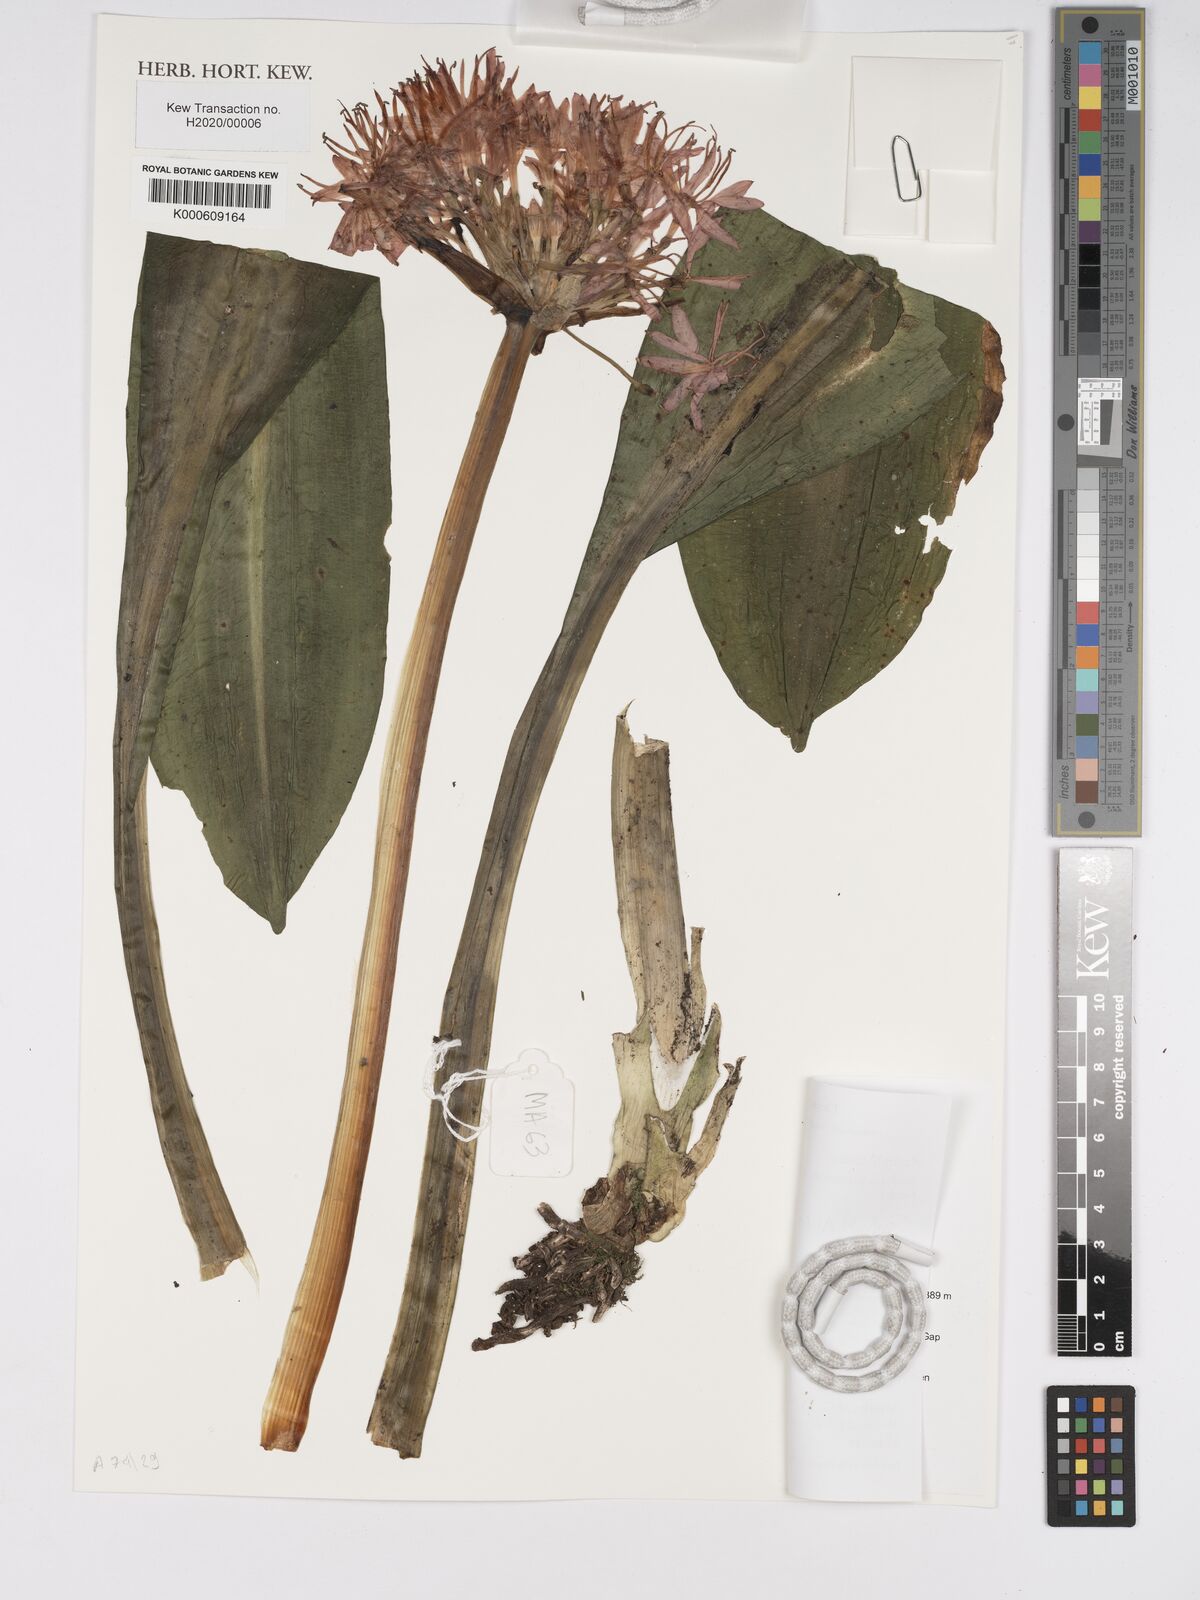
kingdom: Plantae
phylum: Tracheophyta
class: Liliopsida
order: Asparagales
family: Amaryllidaceae
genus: Scadoxus
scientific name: Scadoxus pseudocaulus
